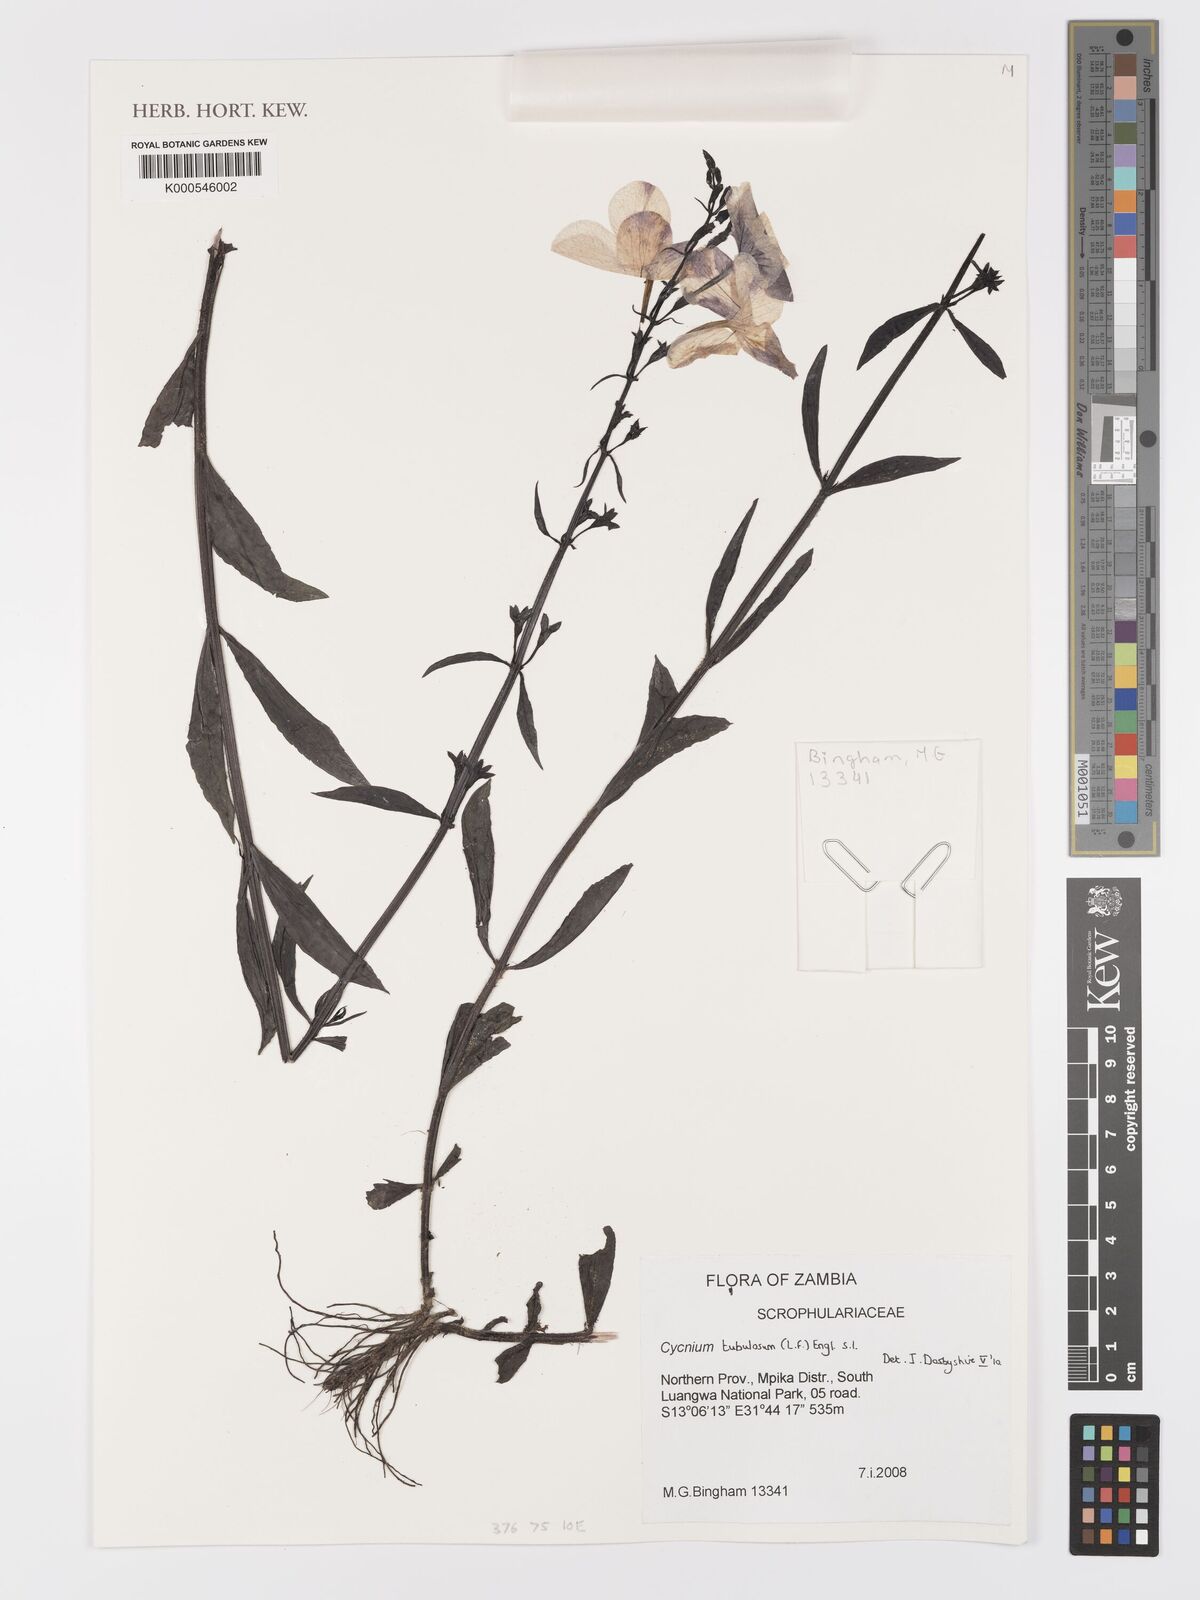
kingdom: Plantae
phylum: Tracheophyta
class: Magnoliopsida
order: Lamiales
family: Orobanchaceae
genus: Cycnium
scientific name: Cycnium tubulosum
